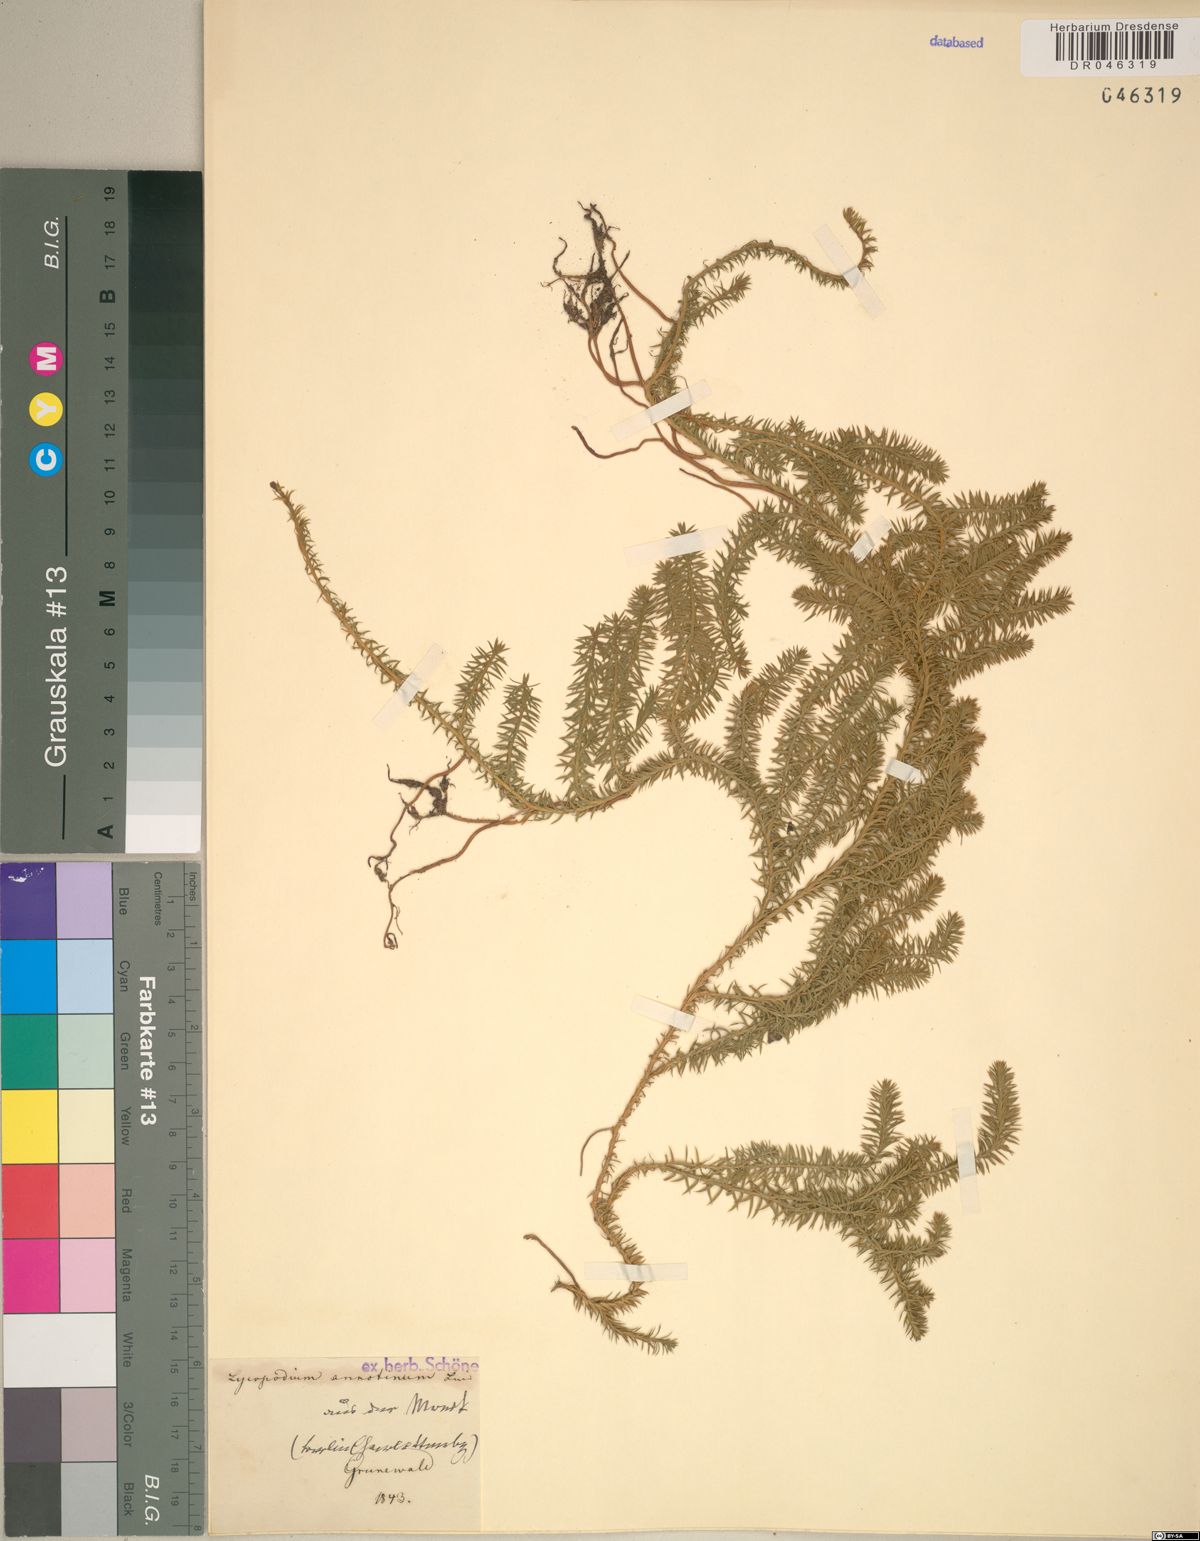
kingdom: Plantae
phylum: Tracheophyta
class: Lycopodiopsida
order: Lycopodiales
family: Lycopodiaceae
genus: Spinulum
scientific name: Spinulum annotinum
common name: Interrupted club-moss
